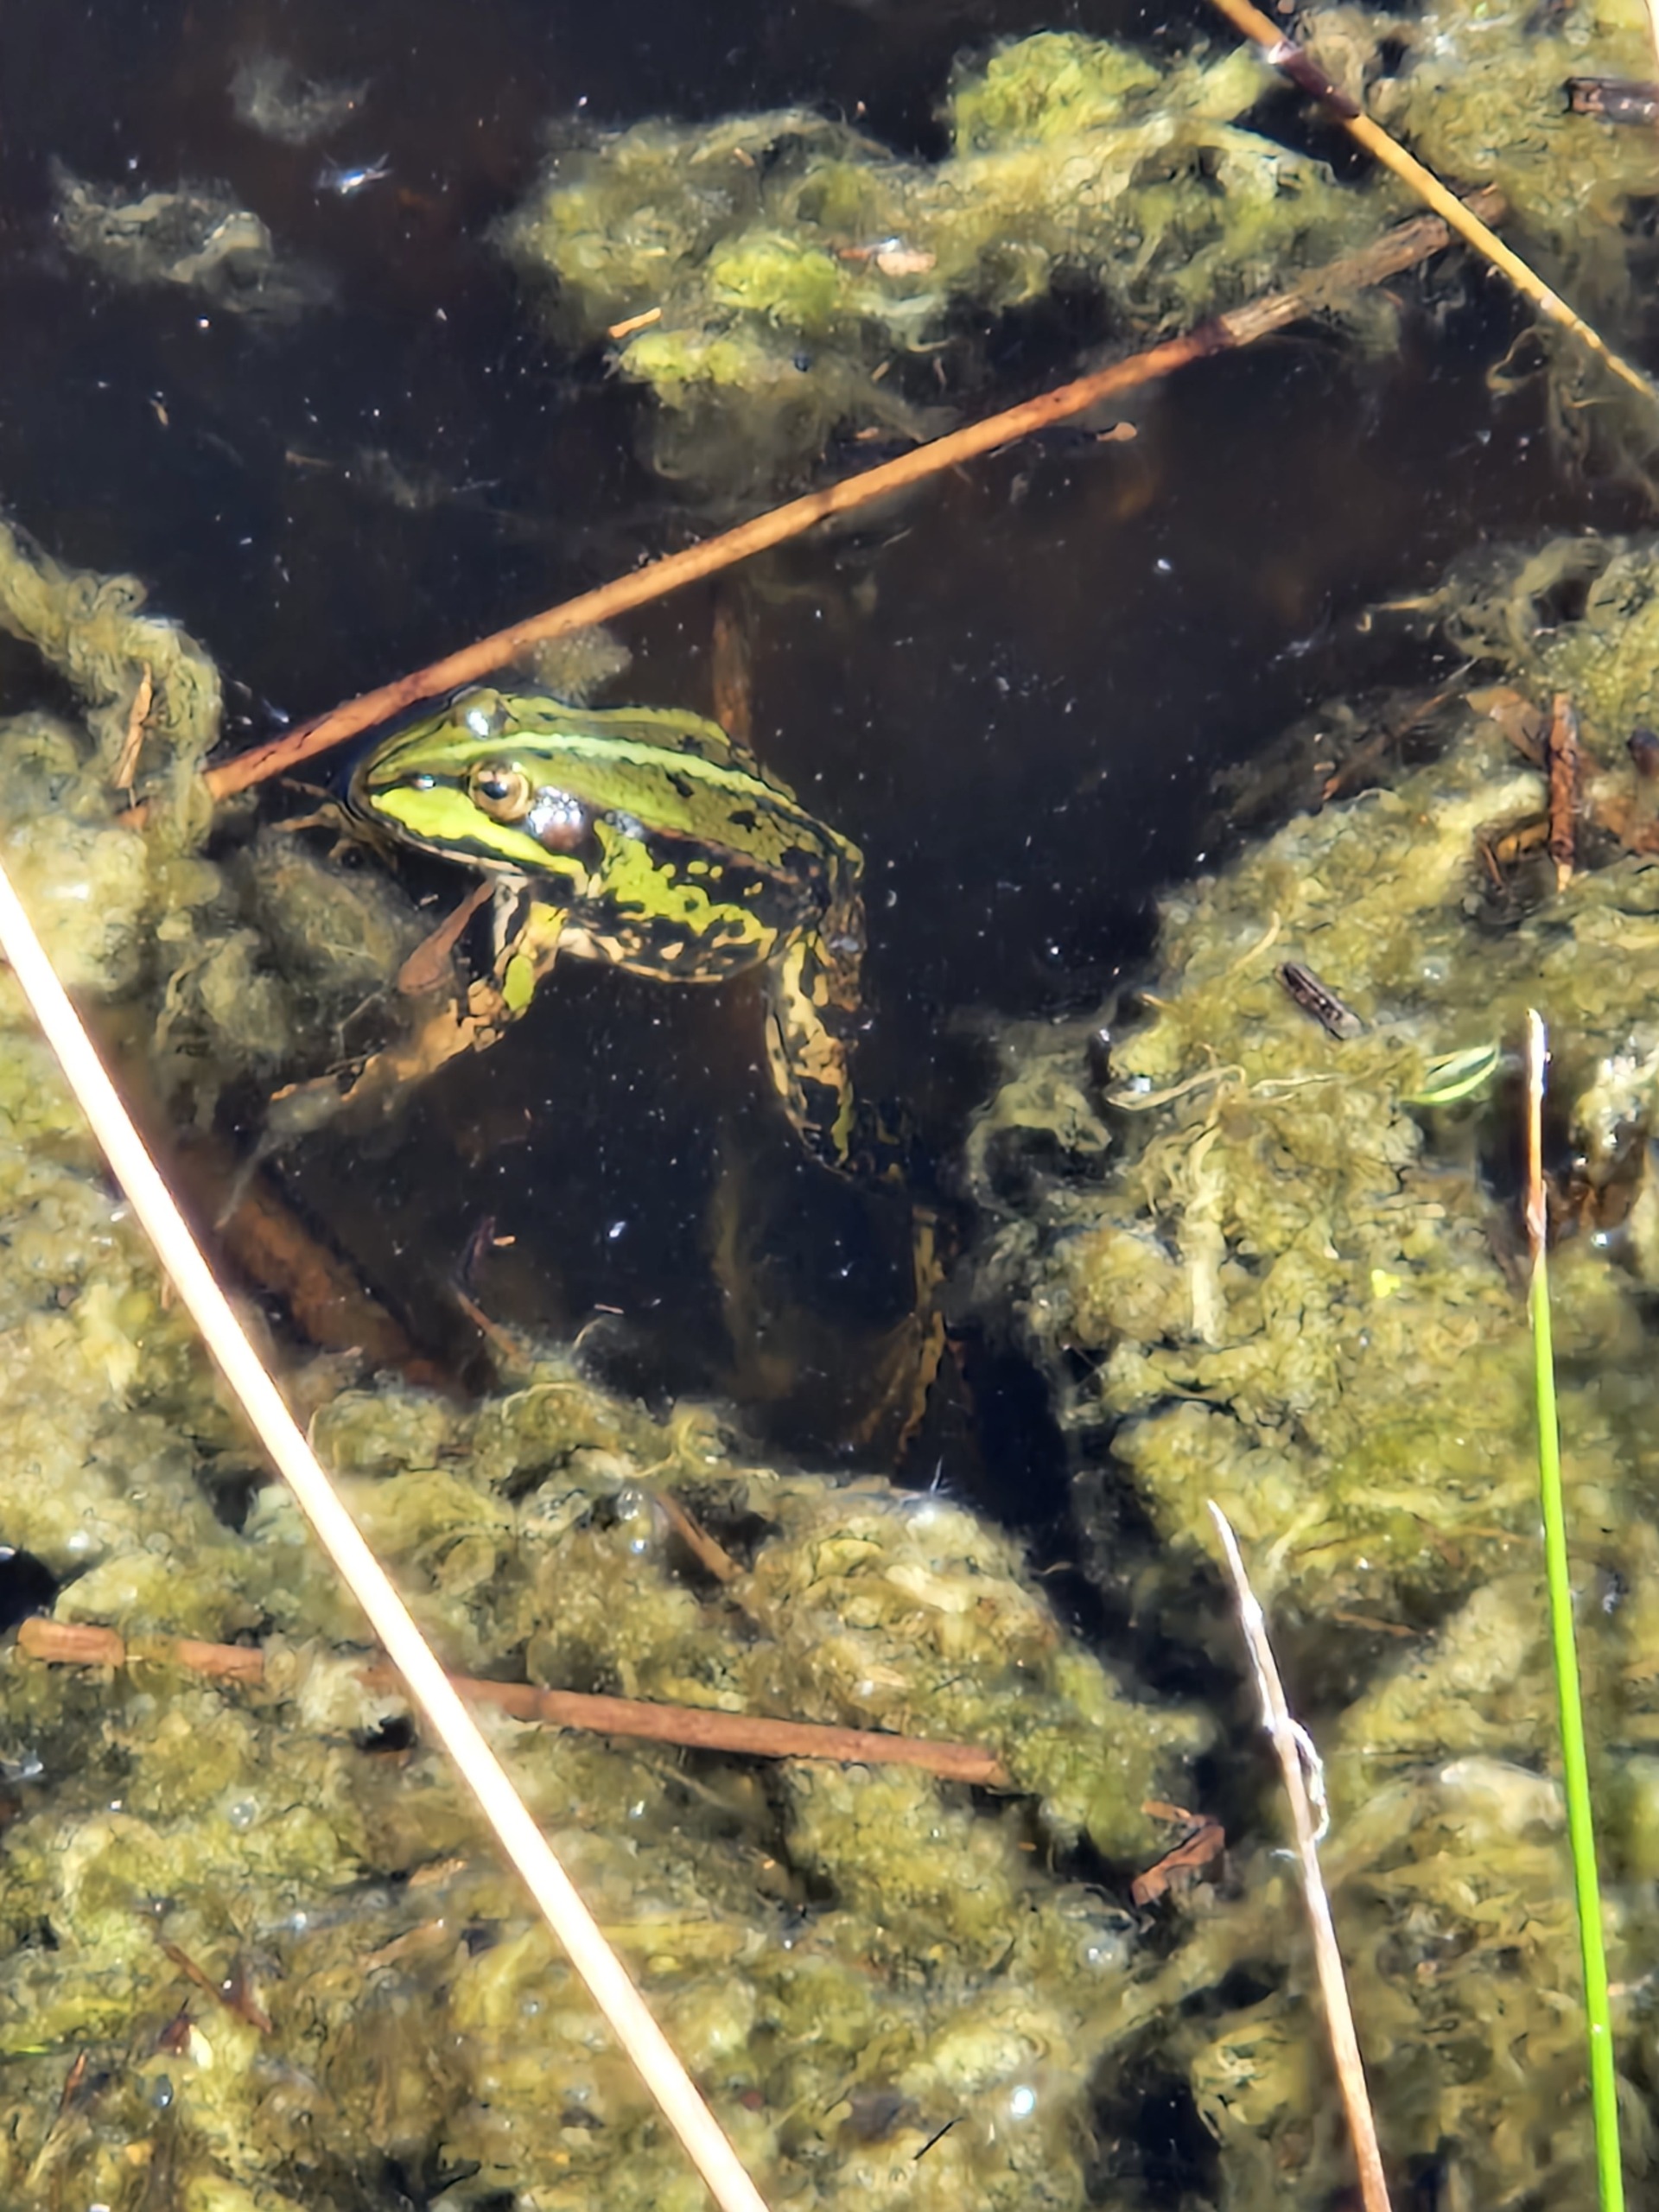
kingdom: Animalia
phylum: Chordata
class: Amphibia
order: Anura
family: Ranidae
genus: Pelophylax
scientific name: Pelophylax lessonae
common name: Grøn frø
